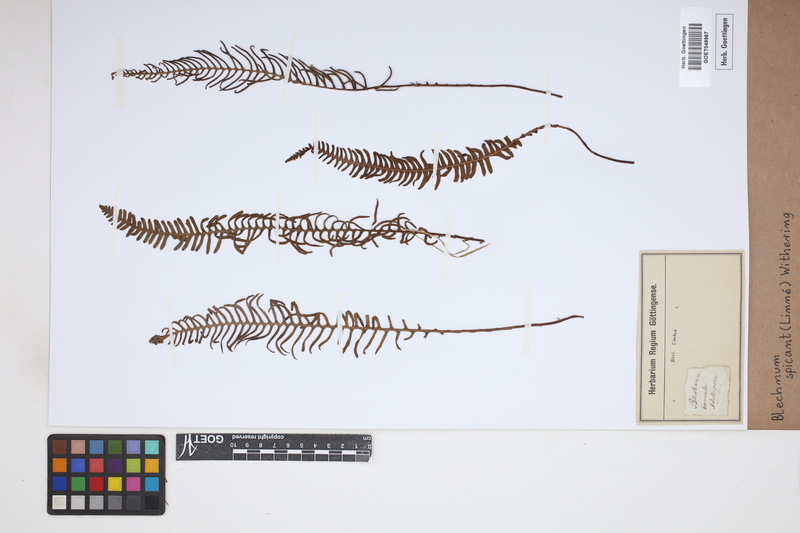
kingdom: Plantae
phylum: Tracheophyta
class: Polypodiopsida
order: Polypodiales
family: Blechnaceae
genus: Struthiopteris
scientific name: Struthiopteris spicant
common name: Deer fern
